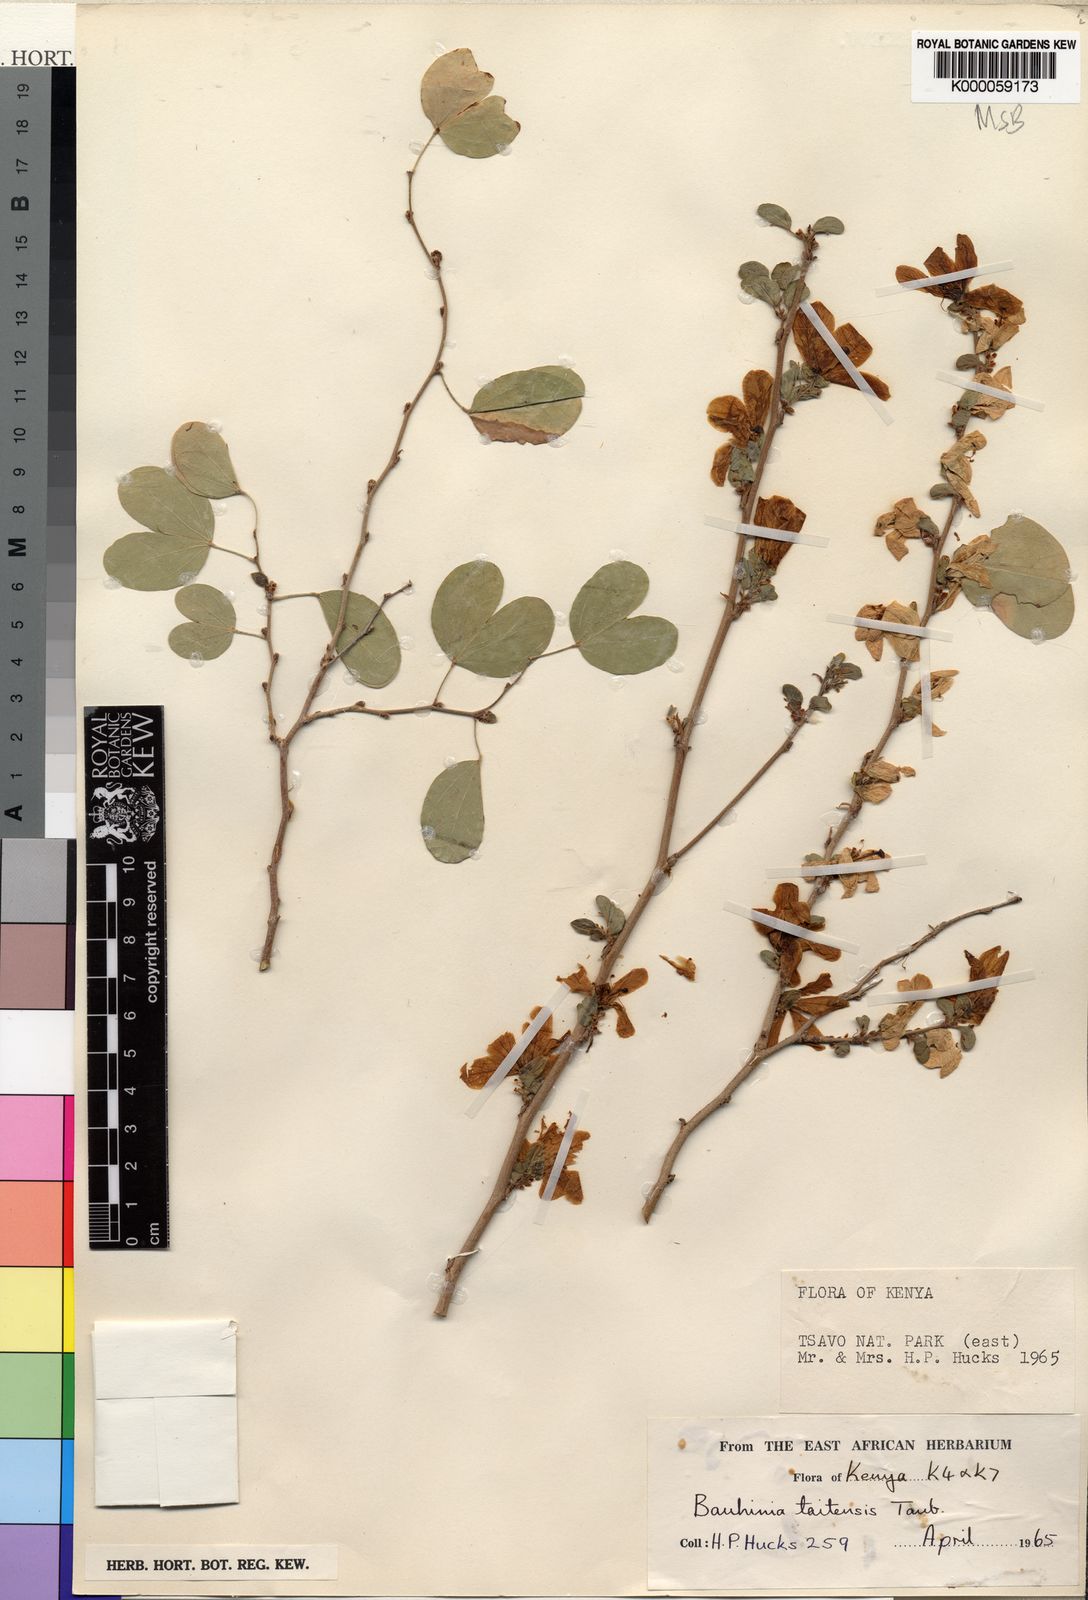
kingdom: Plantae
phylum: Tracheophyta
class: Magnoliopsida
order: Fabales
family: Fabaceae
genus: Bauhinia
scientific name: Bauhinia taitensis
